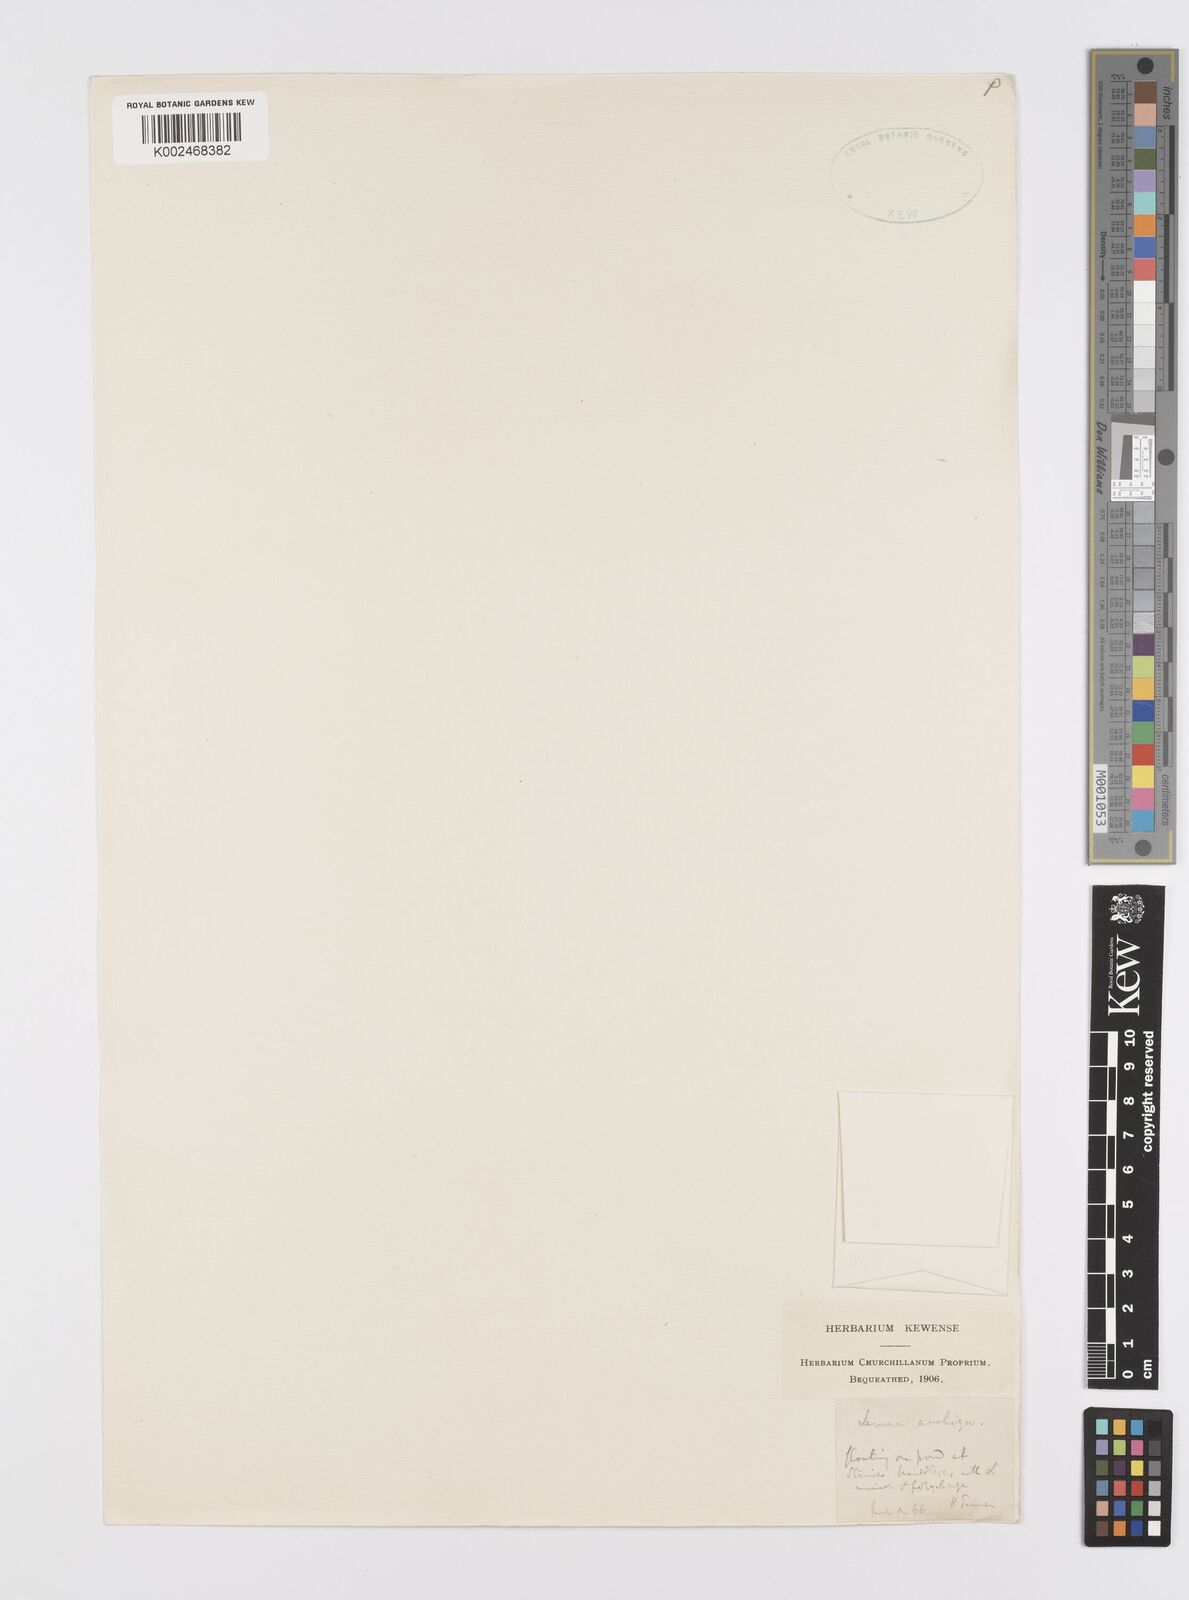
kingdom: Plantae
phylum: Tracheophyta
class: Liliopsida
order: Alismatales
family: Araceae
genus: Wolffia
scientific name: Wolffia arrhiza
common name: Rootless duckweed
